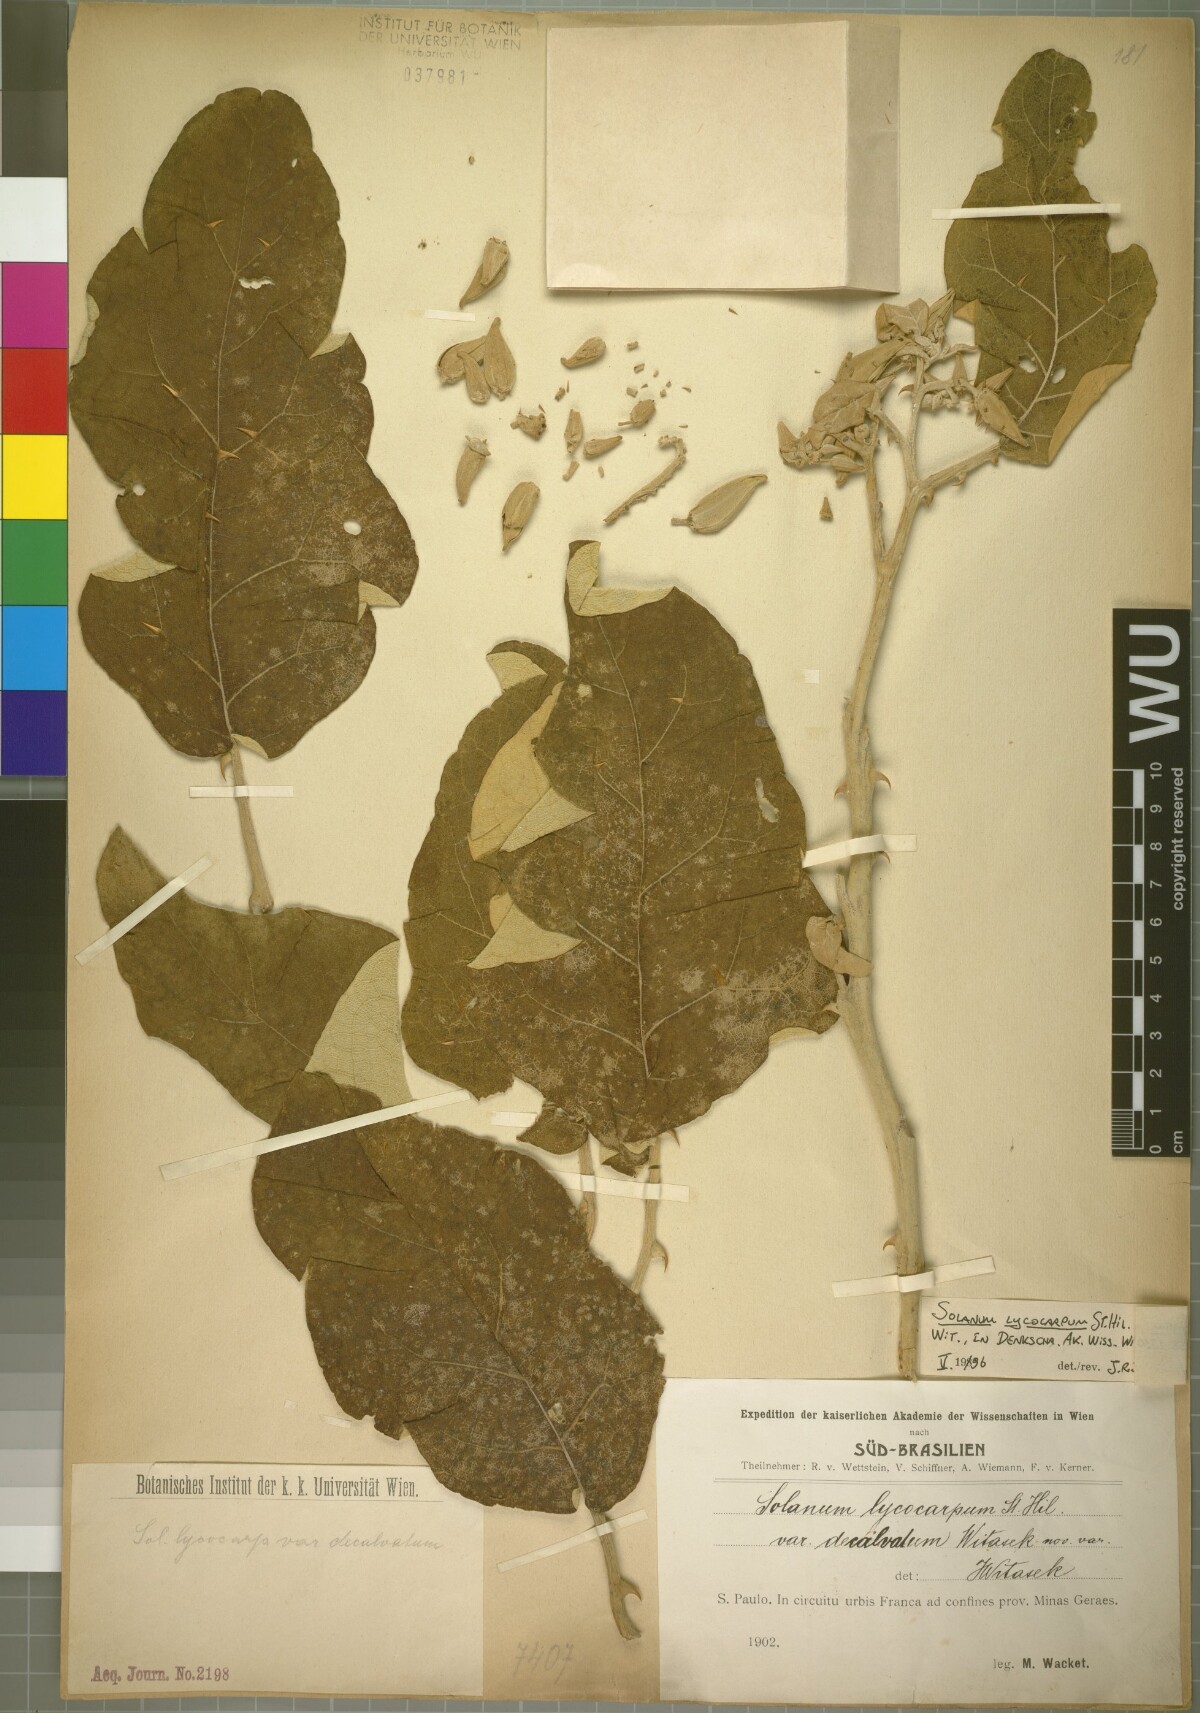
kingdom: Plantae
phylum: Tracheophyta
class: Magnoliopsida
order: Solanales
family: Solanaceae
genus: Solanum
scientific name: Solanum lycocarpum
